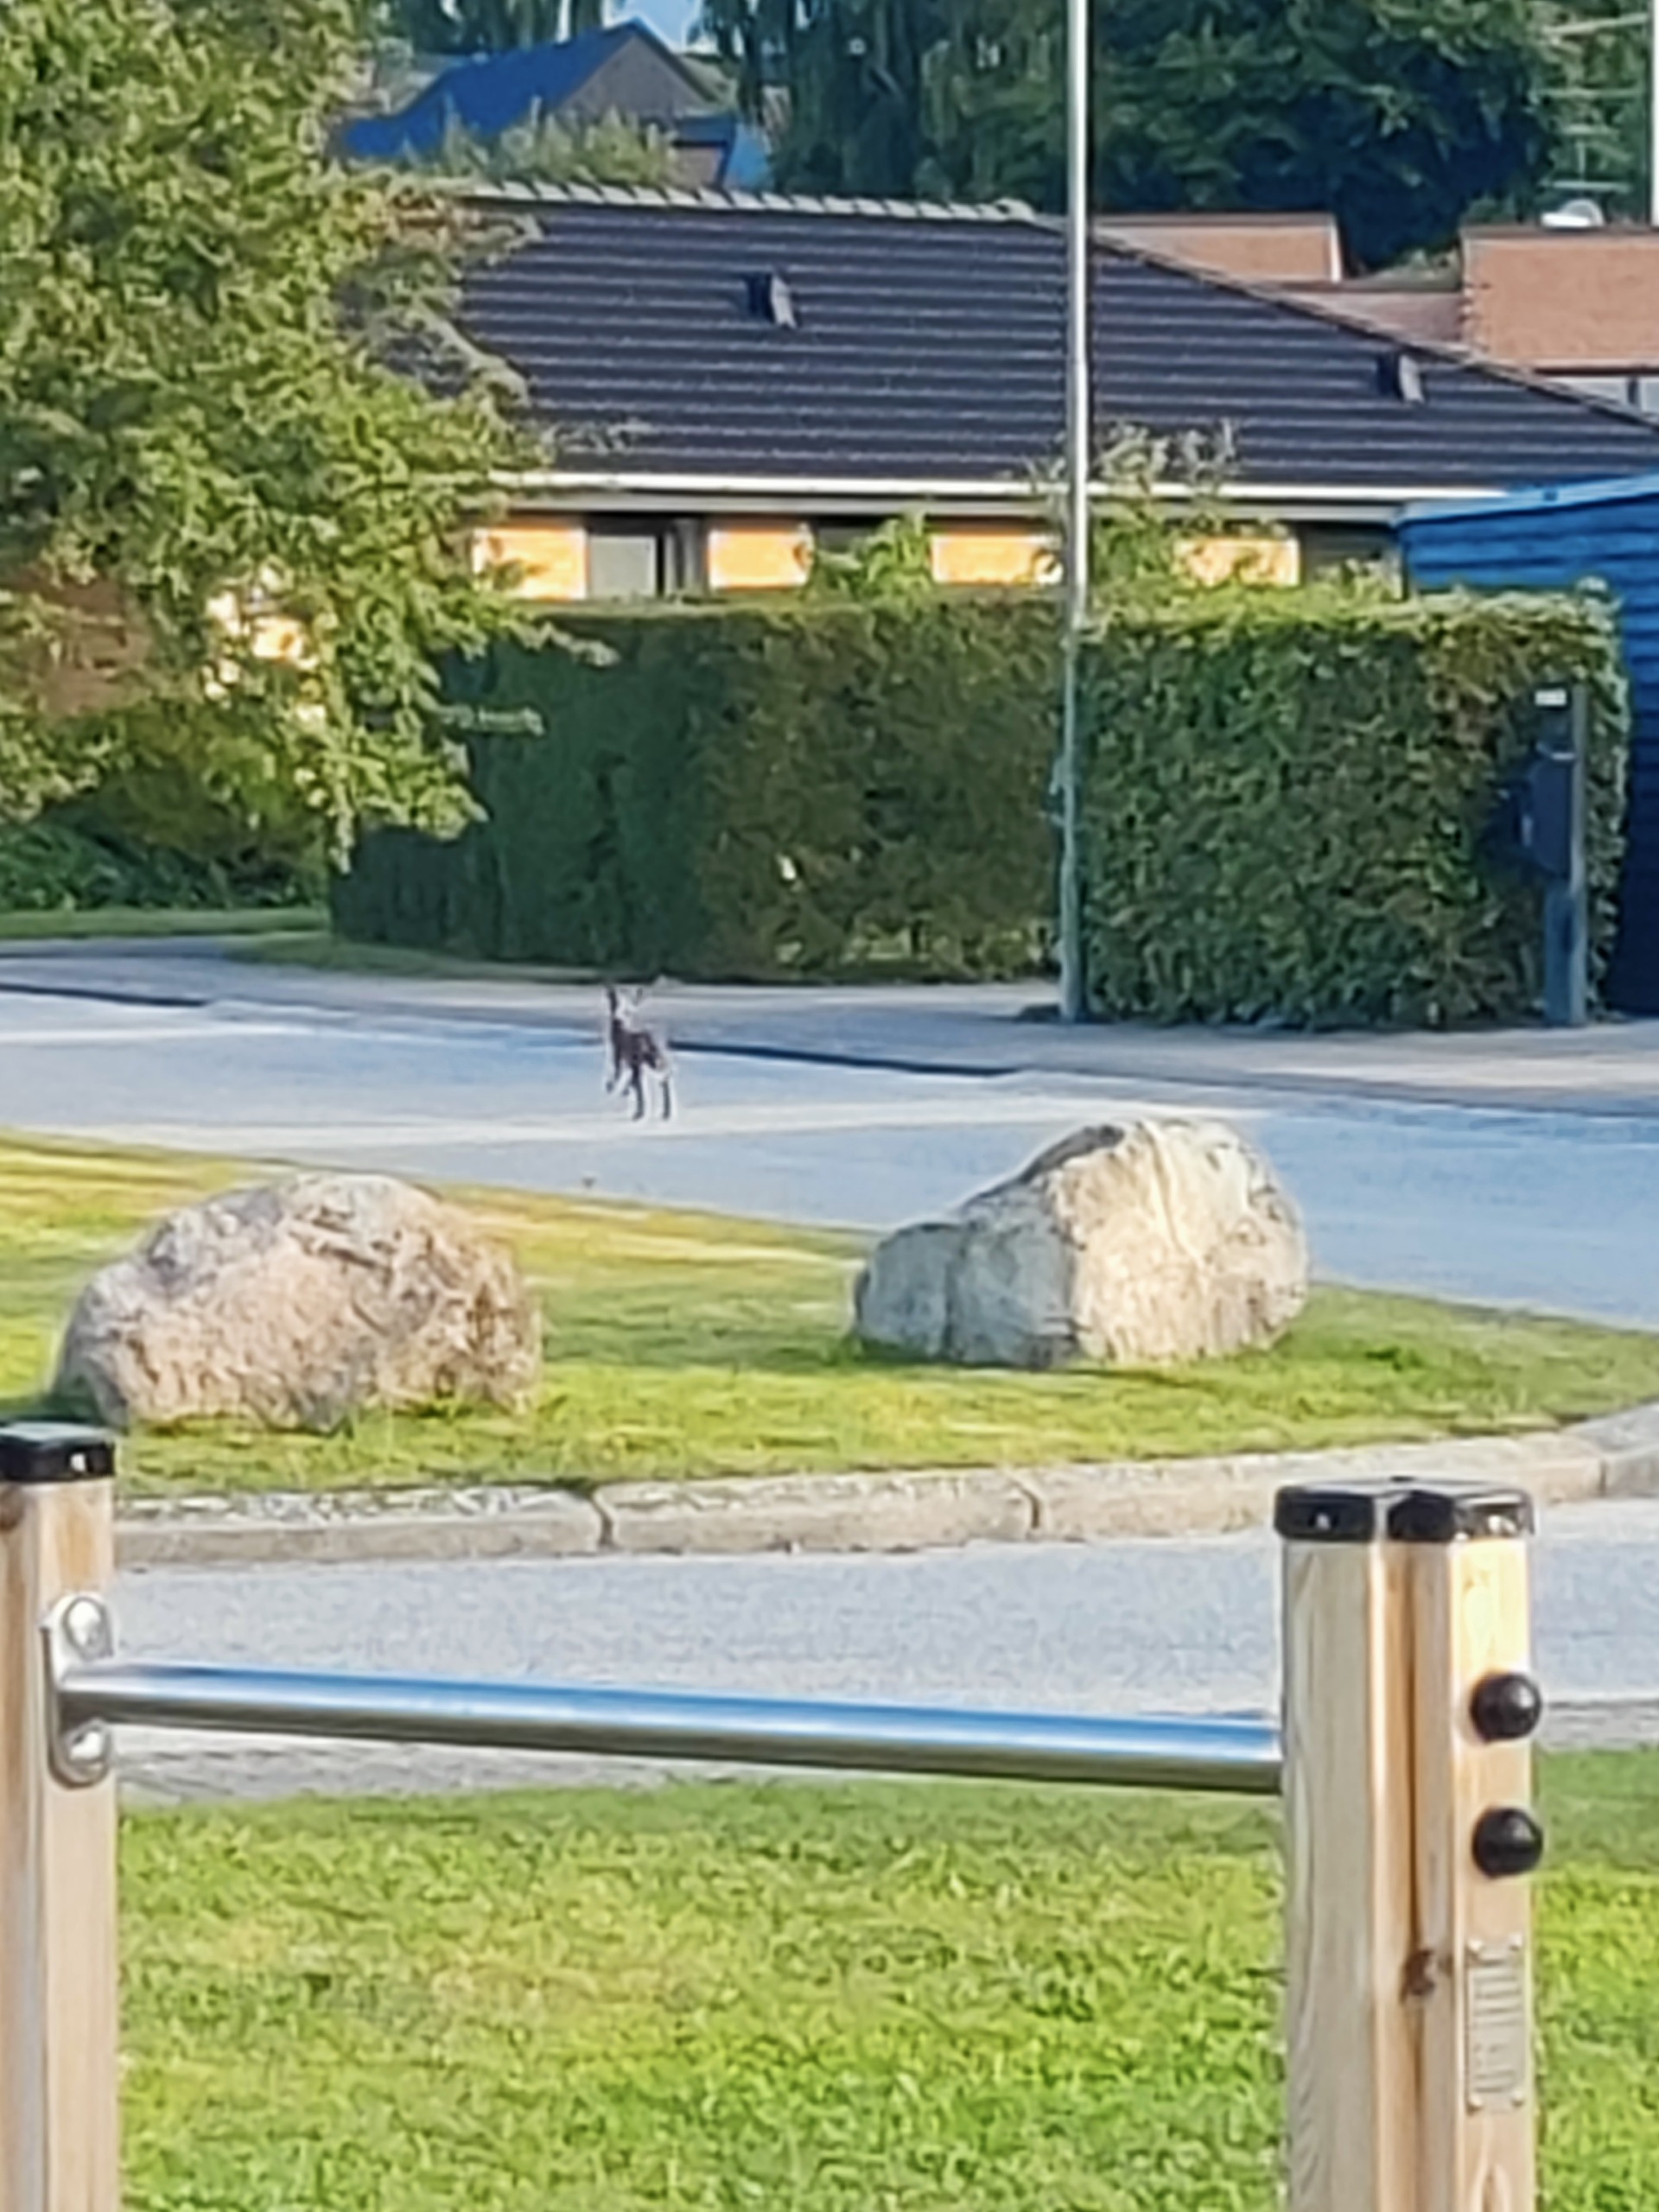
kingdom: Animalia
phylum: Chordata
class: Mammalia
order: Lagomorpha
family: Leporidae
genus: Lepus
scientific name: Lepus europaeus
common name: Hare
